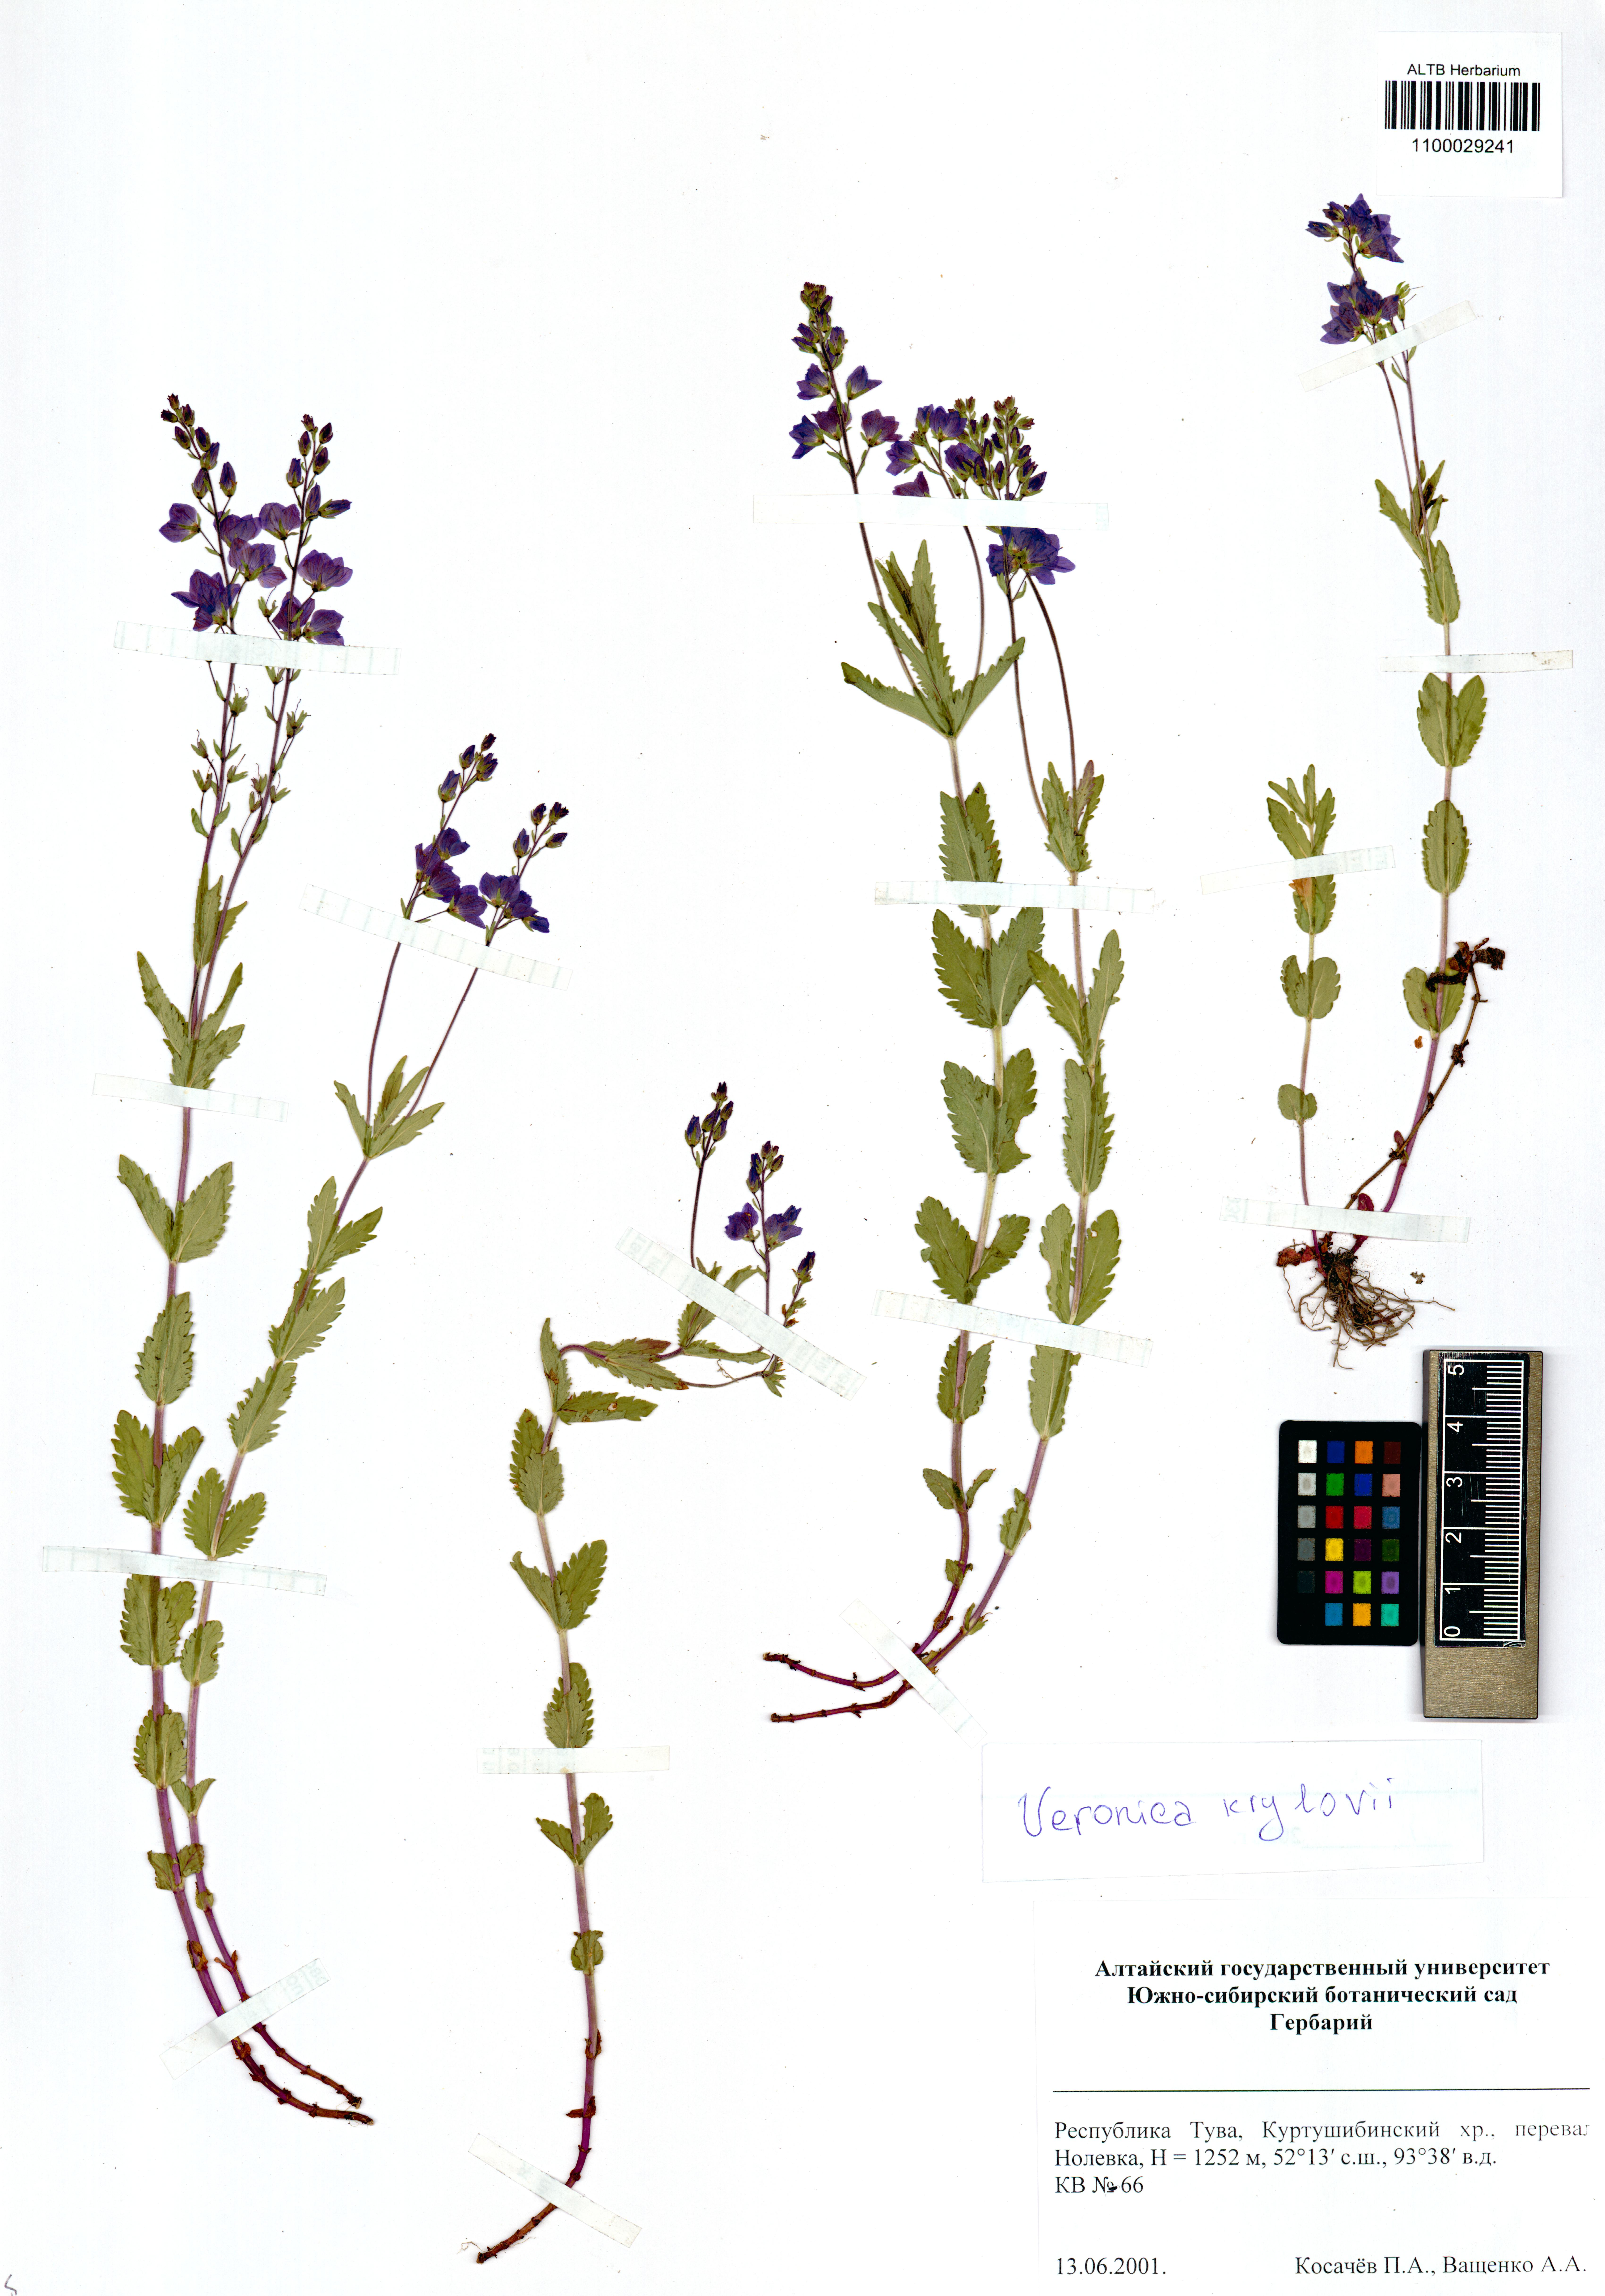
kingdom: Plantae
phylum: Tracheophyta
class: Magnoliopsida
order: Lamiales
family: Plantaginaceae
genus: Veronica
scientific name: Veronica krylovii
